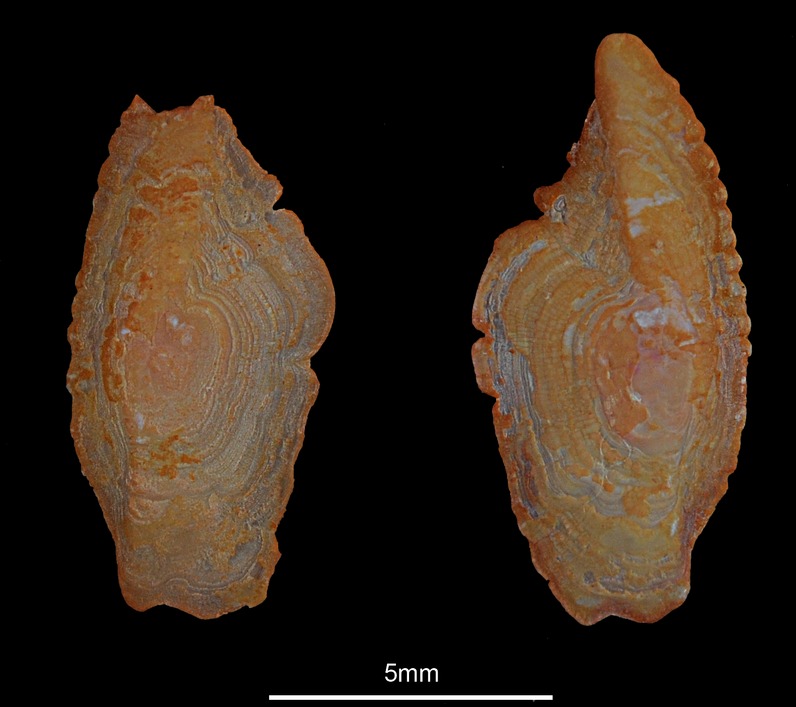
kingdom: Animalia
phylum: Chordata
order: Scorpaeniformes
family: Sebastidae
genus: Sebastes
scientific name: Sebastes viviparus
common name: Norway haddock
